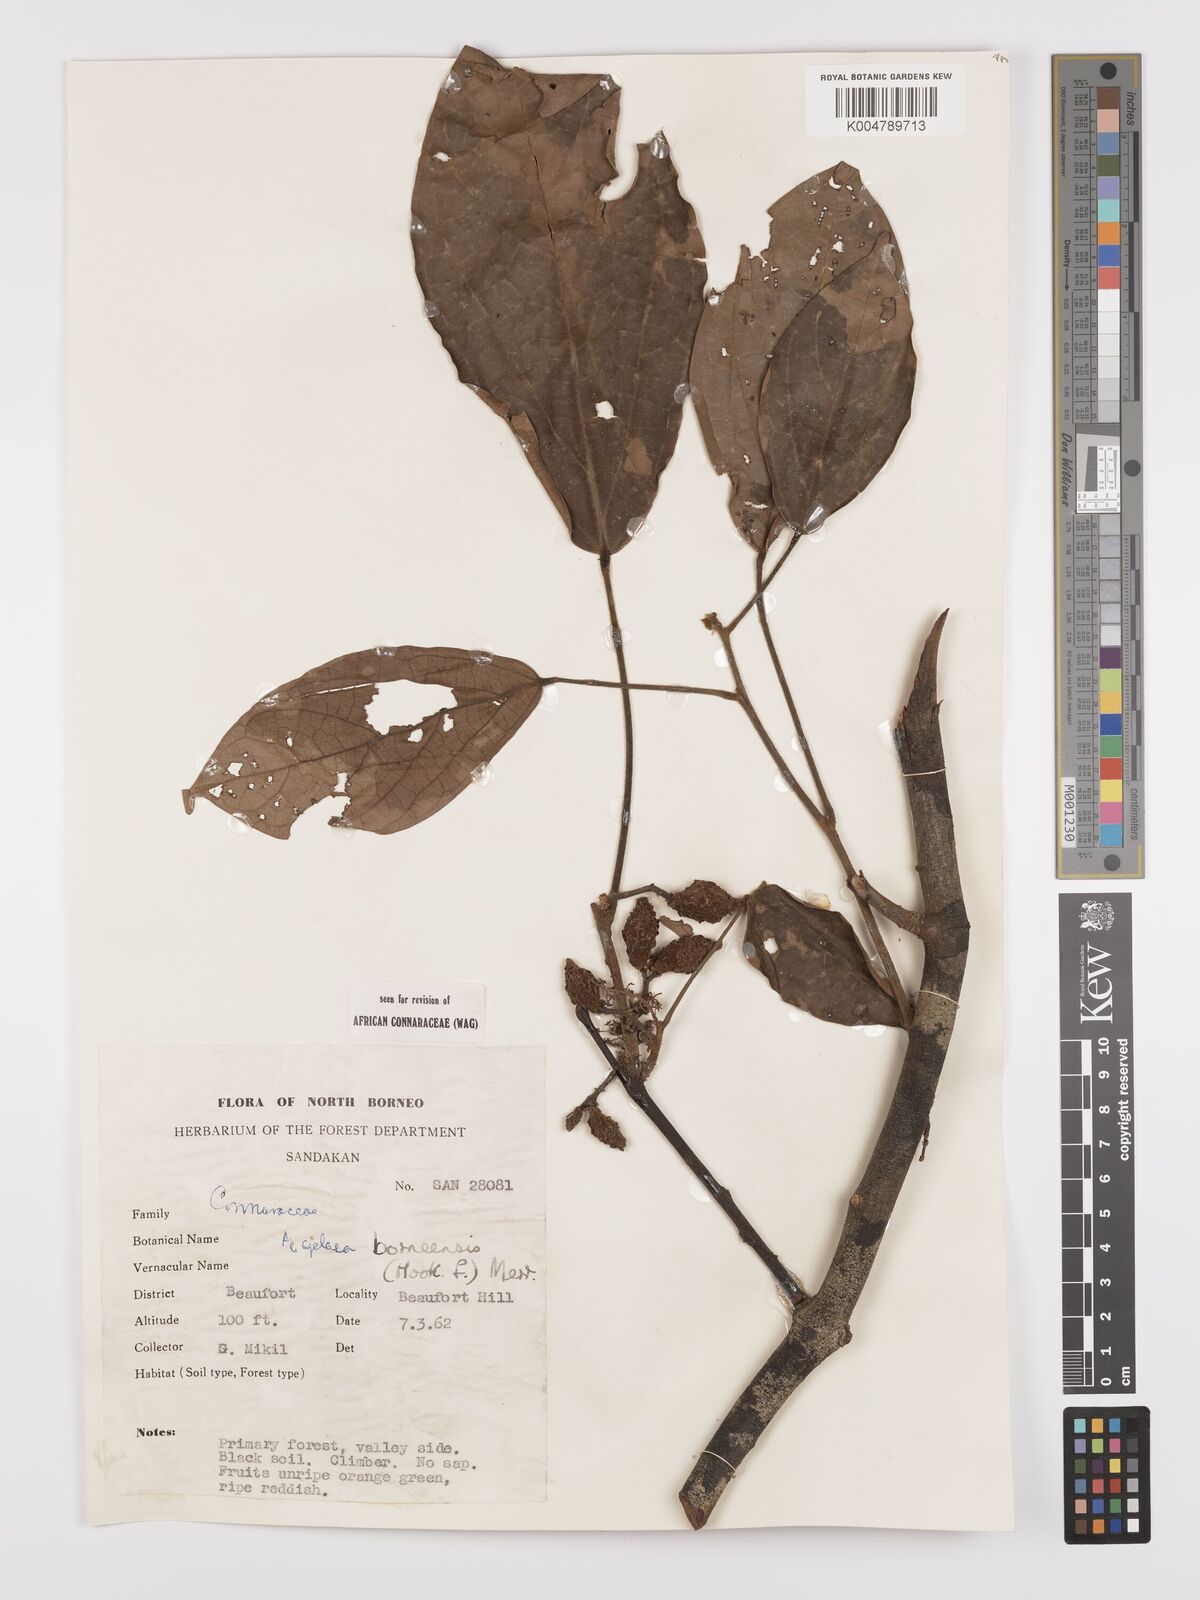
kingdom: Plantae
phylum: Tracheophyta
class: Magnoliopsida
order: Oxalidales
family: Connaraceae
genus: Agelaea
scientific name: Agelaea borneensis
